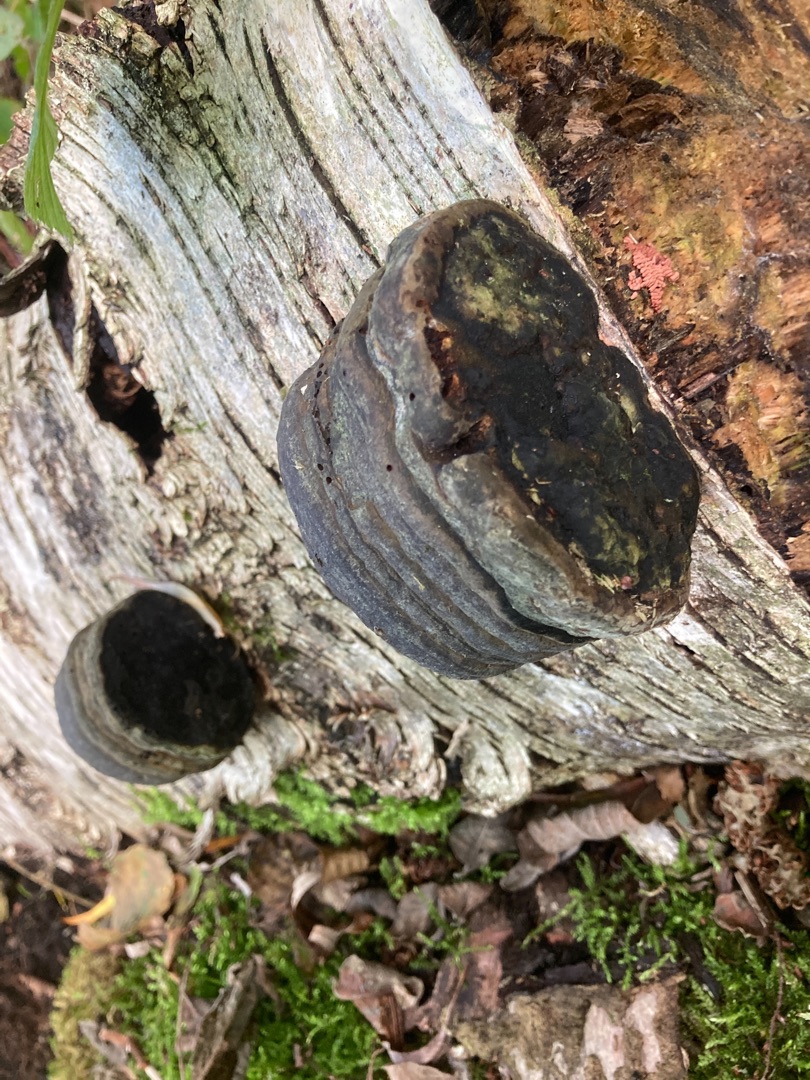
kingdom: Fungi
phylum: Basidiomycota
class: Agaricomycetes
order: Polyporales
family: Polyporaceae
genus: Fomes
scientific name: Fomes fomentarius
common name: Tøndersvamp
